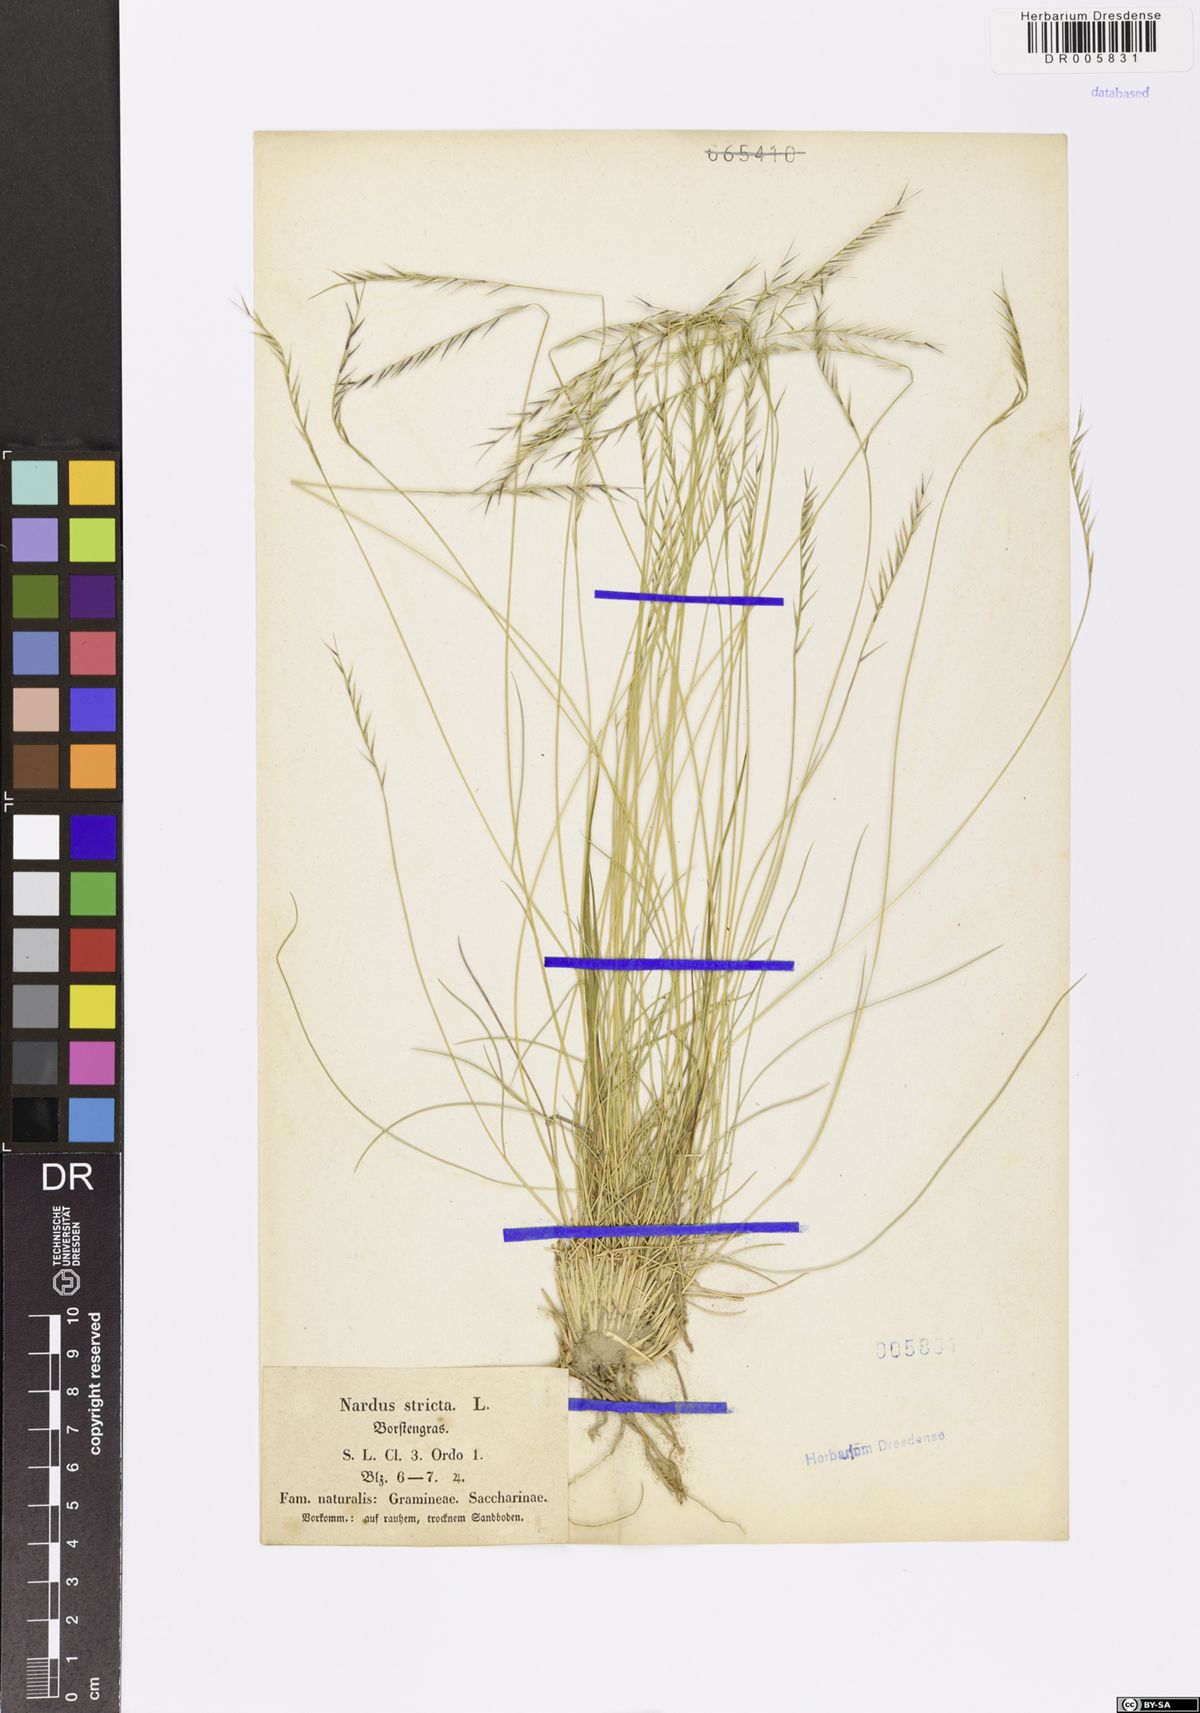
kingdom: Plantae
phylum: Tracheophyta
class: Liliopsida
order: Poales
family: Poaceae
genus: Nardus
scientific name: Nardus stricta
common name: Mat-grass
